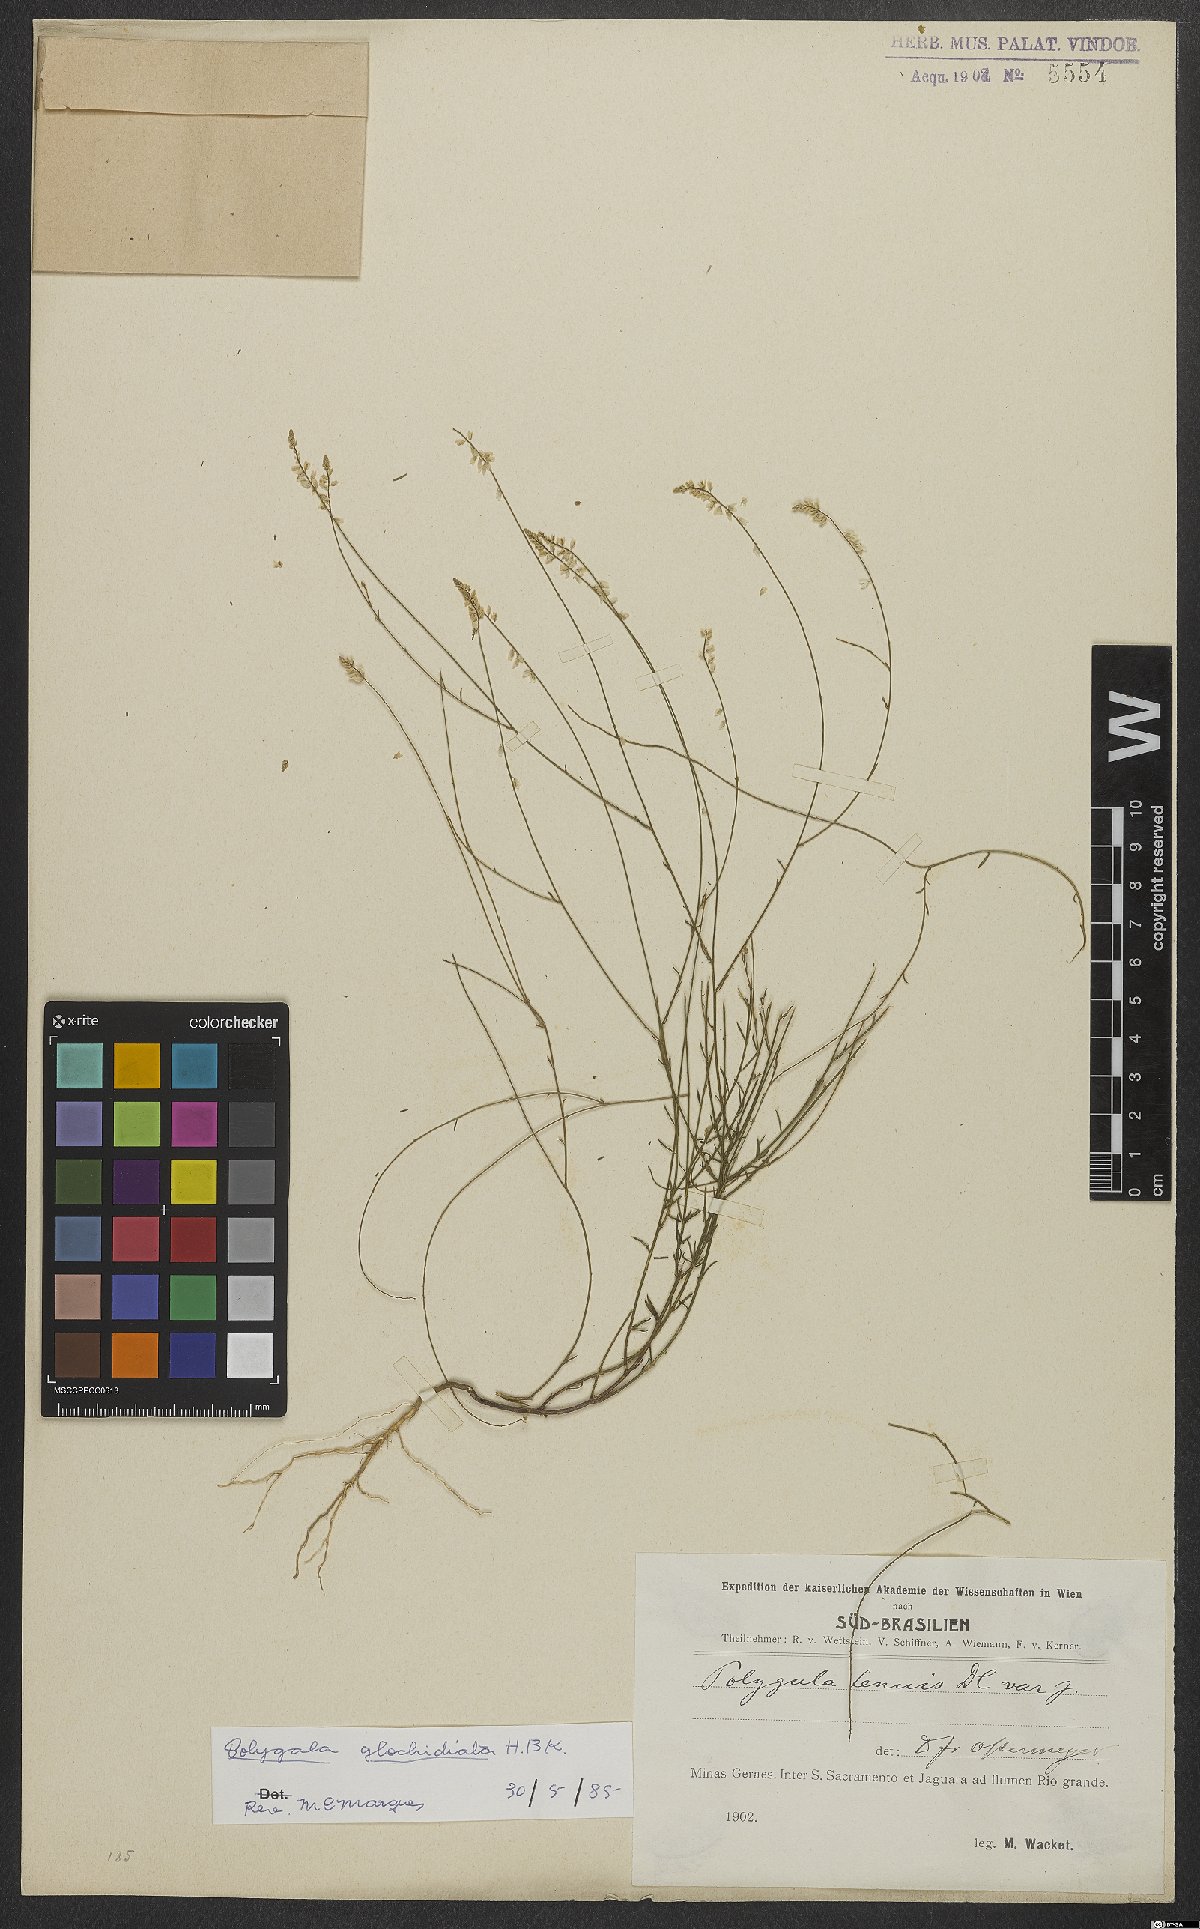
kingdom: Plantae
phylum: Tracheophyta
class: Magnoliopsida
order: Fabales
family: Polygalaceae
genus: Polygala
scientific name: Polygala Senega glochidata
